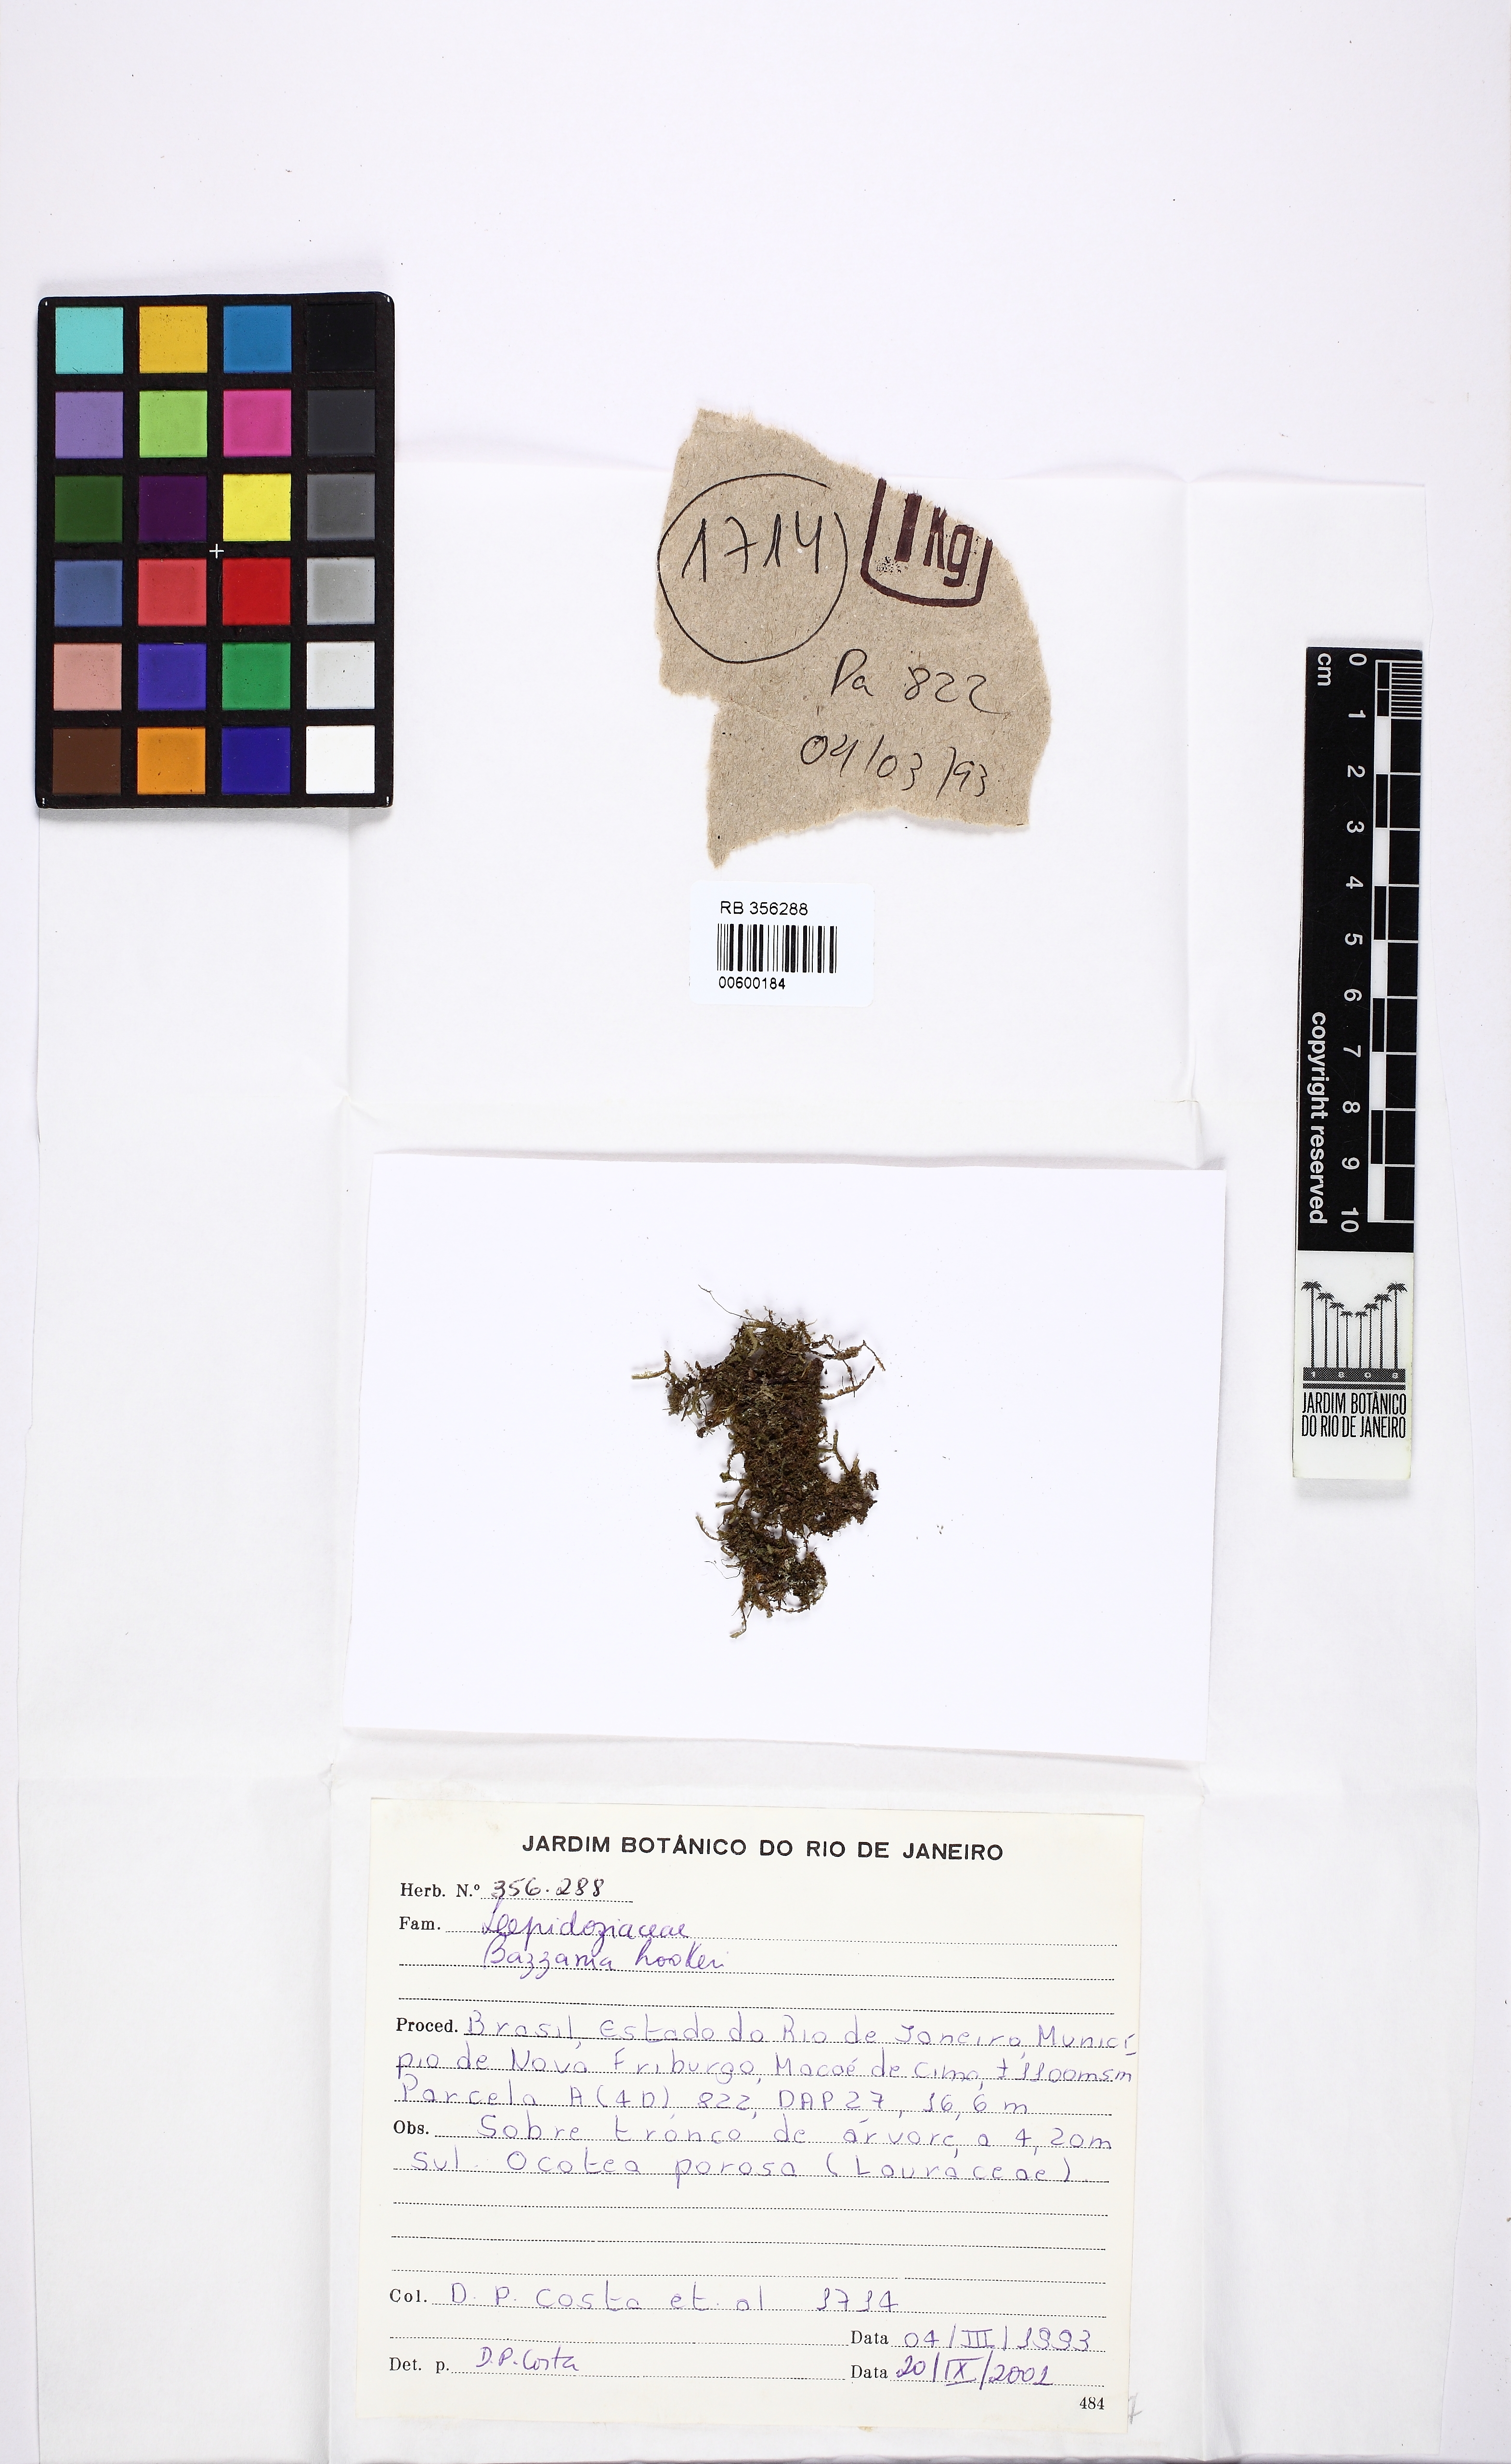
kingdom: Plantae
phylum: Marchantiophyta
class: Jungermanniopsida
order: Jungermanniales
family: Lepidoziaceae
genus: Bazzania
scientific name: Bazzania hookeri
